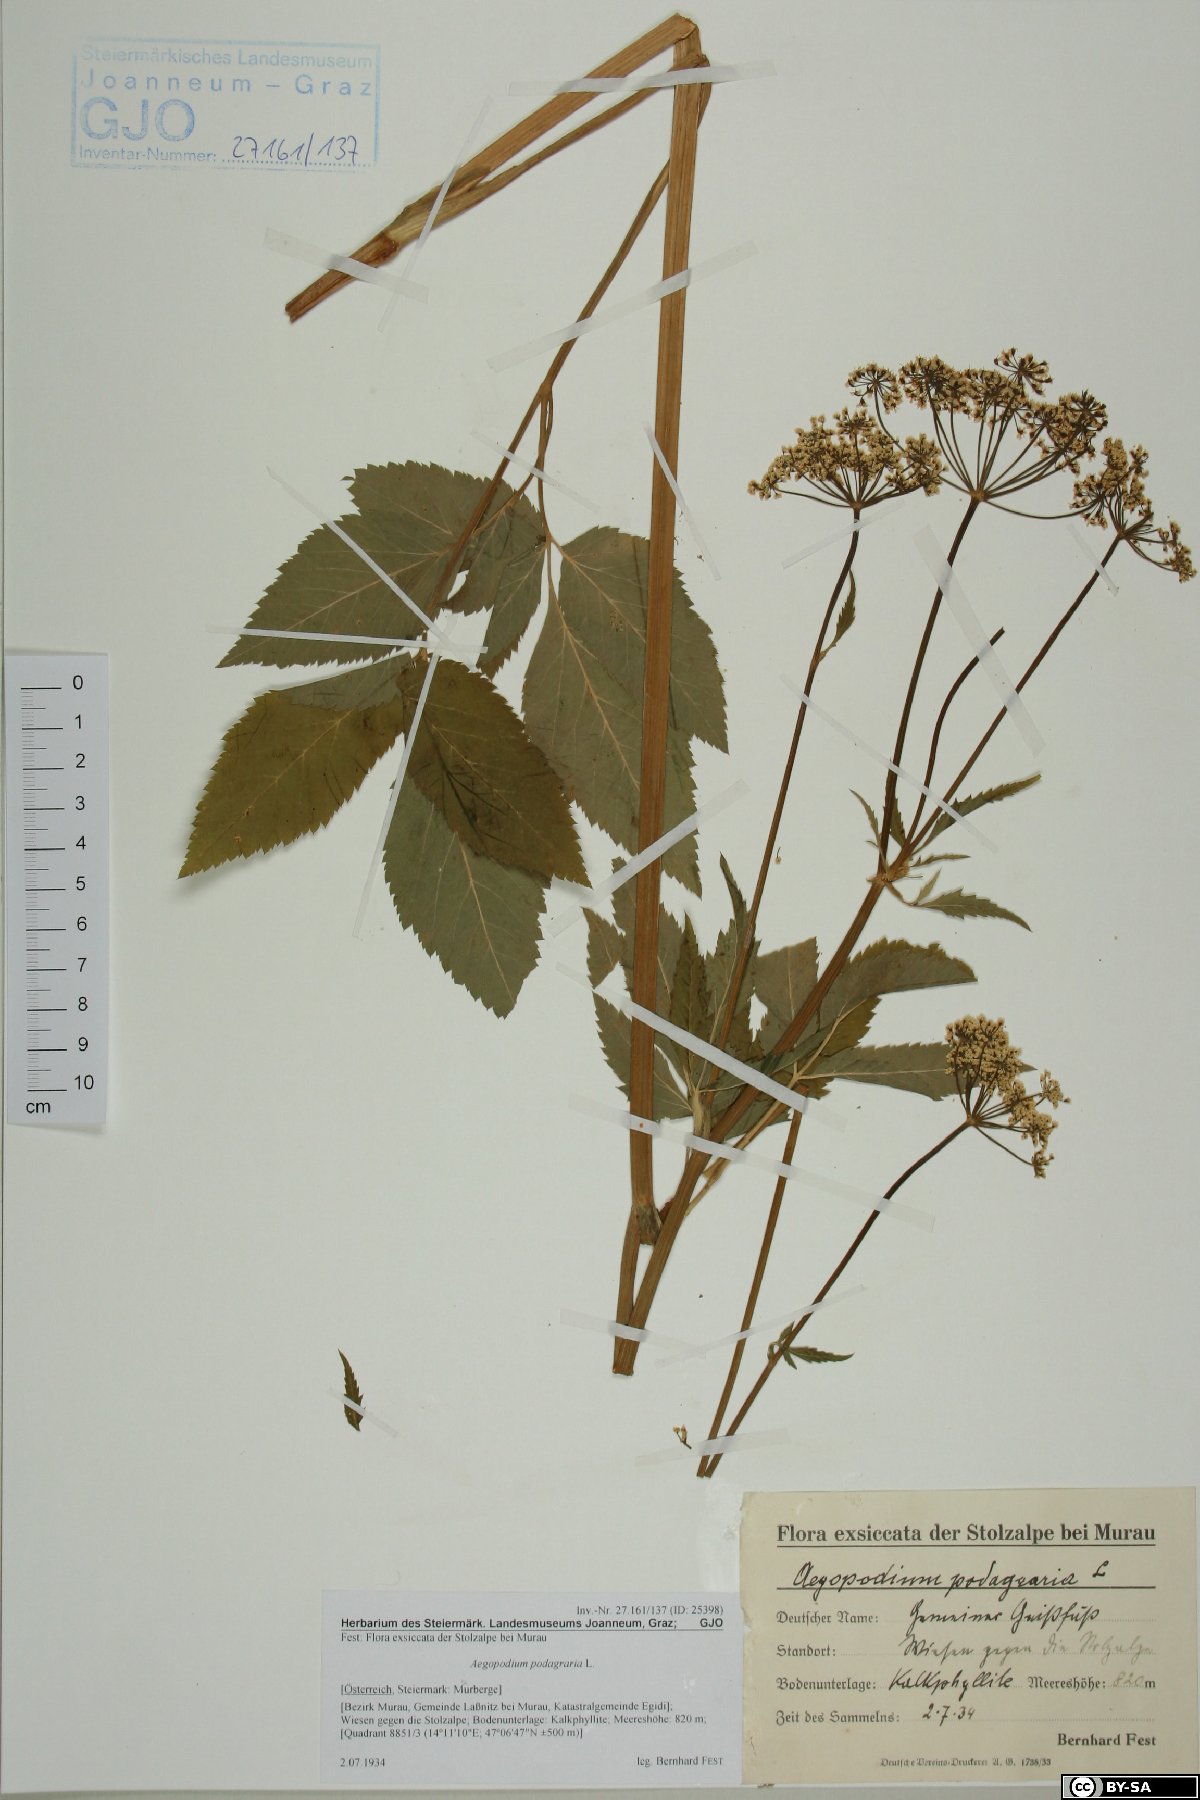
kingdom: Plantae
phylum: Tracheophyta
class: Magnoliopsida
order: Apiales
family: Apiaceae
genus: Aegopodium
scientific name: Aegopodium podagraria
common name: Ground-elder
